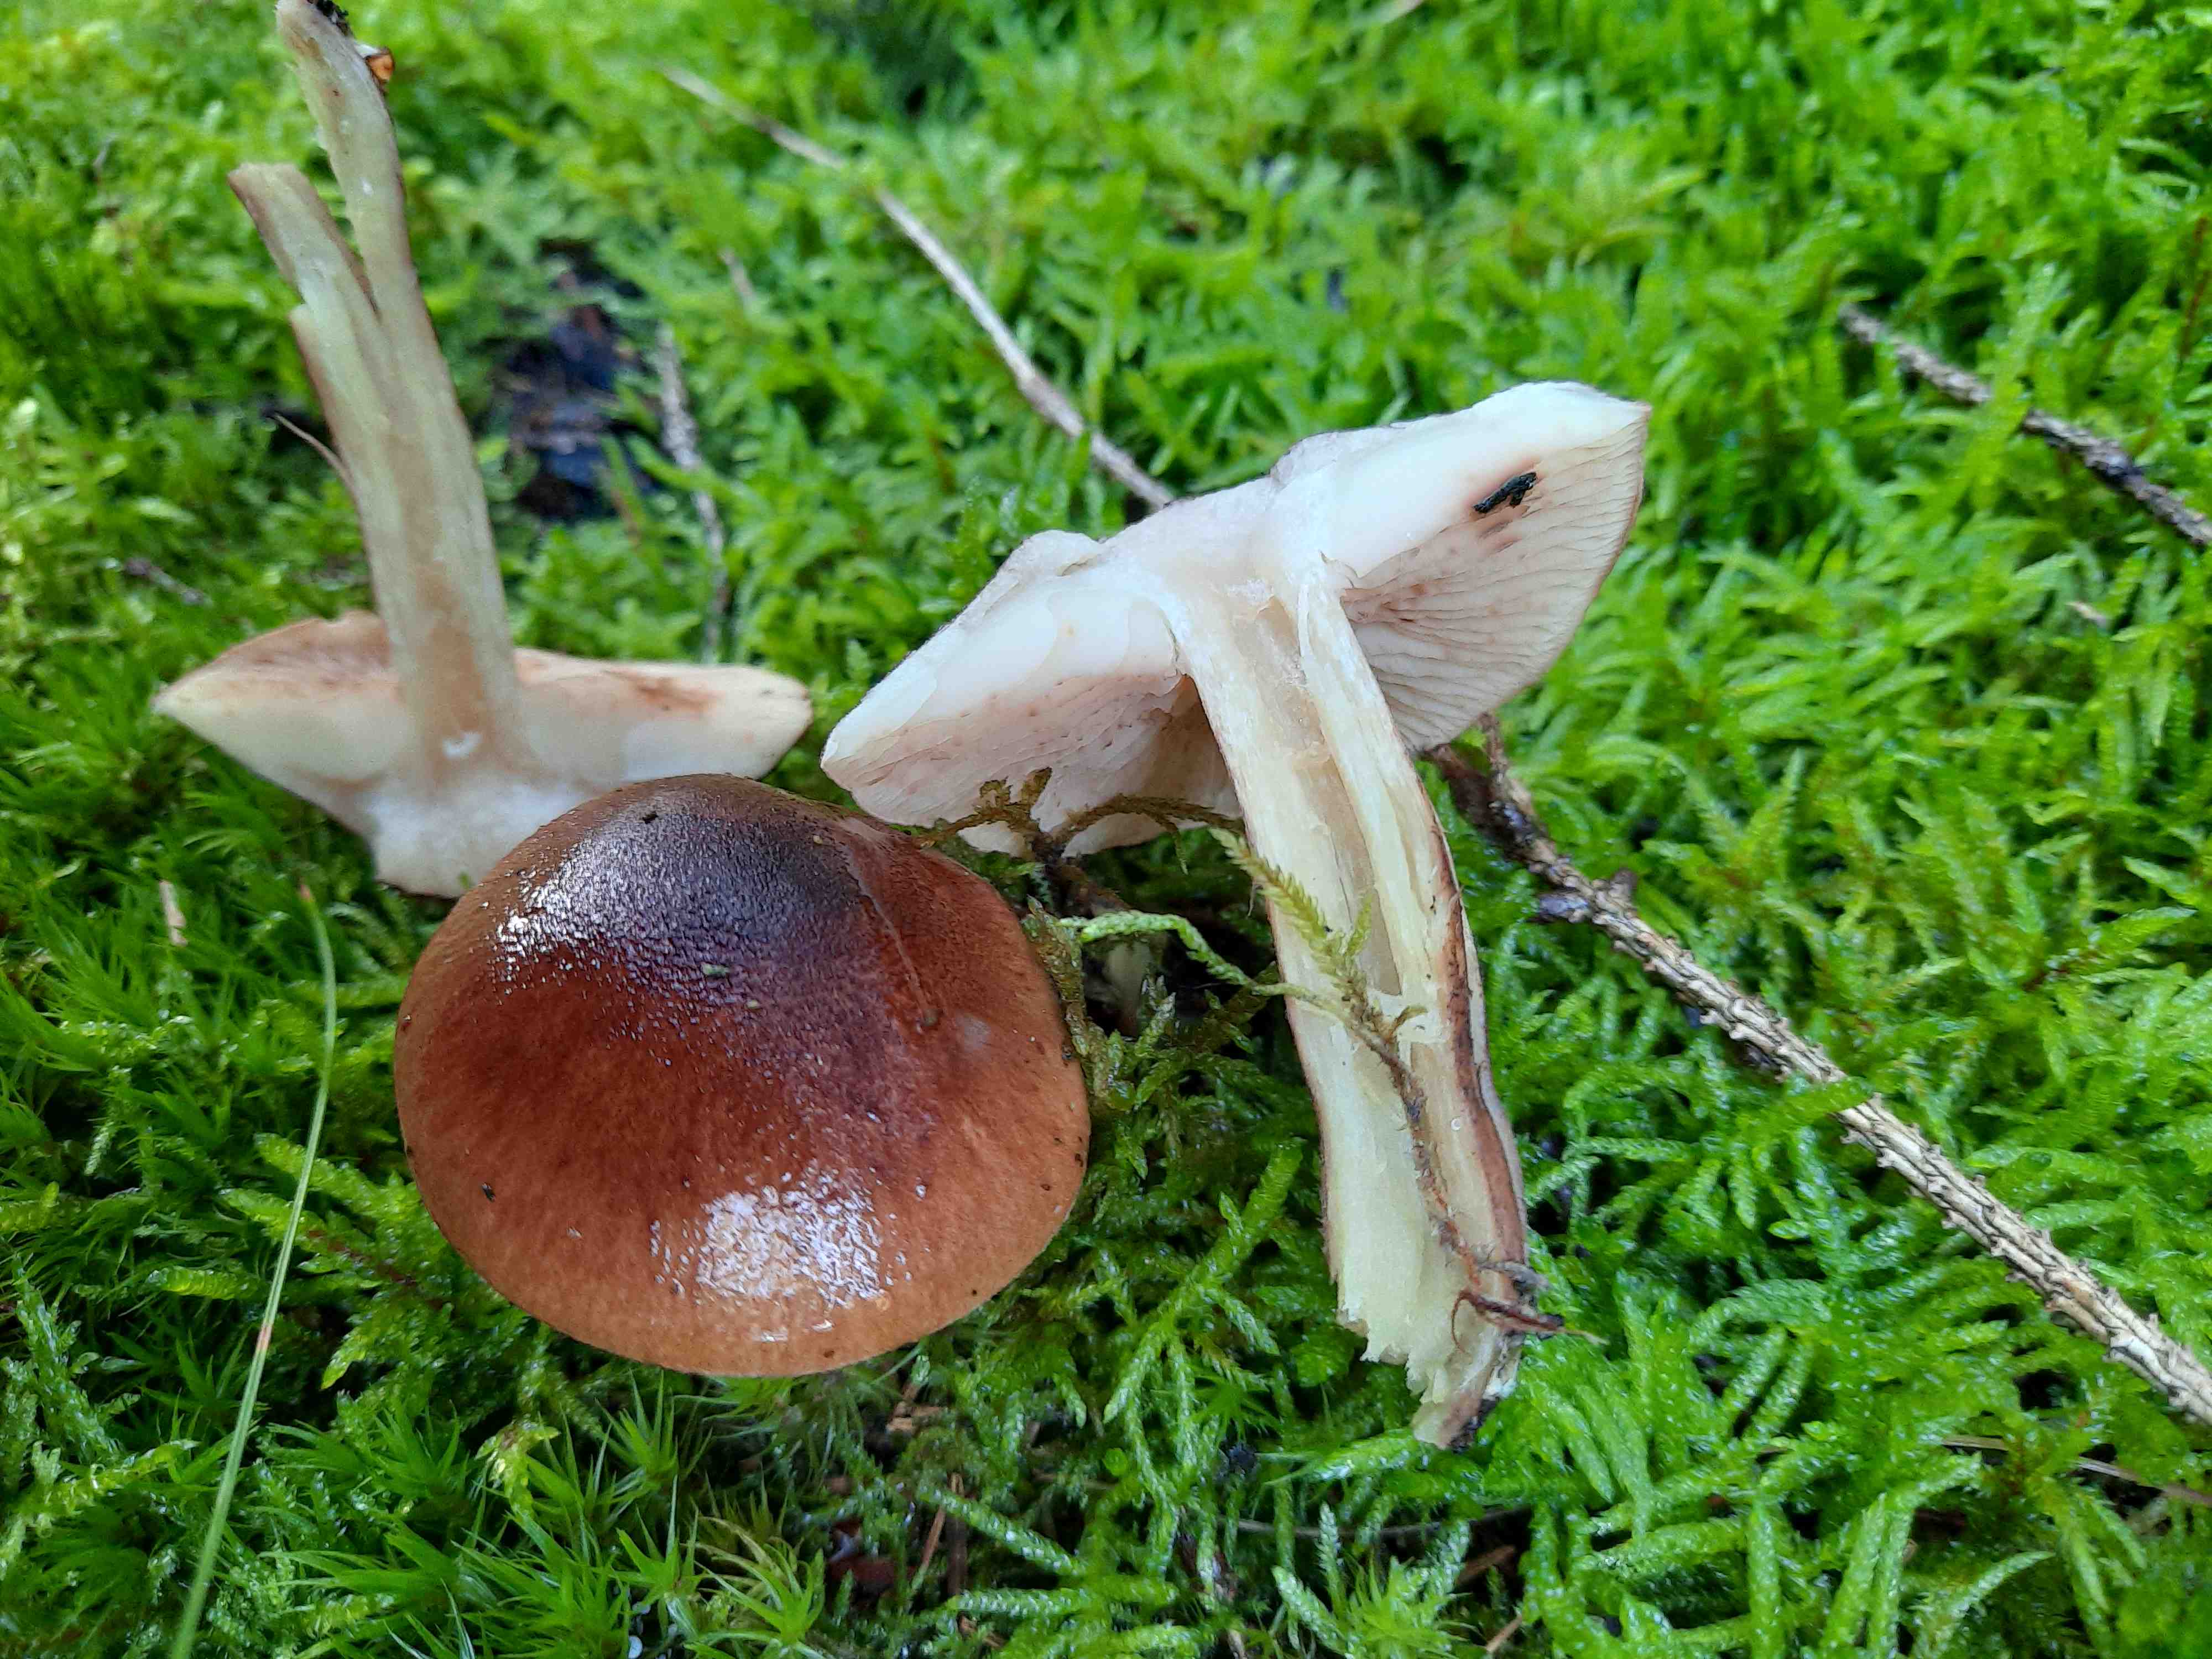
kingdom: Fungi
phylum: Basidiomycota
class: Agaricomycetes
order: Agaricales
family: Tricholomataceae
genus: Tricholoma
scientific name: Tricholoma fulvum
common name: birke-ridderhat
